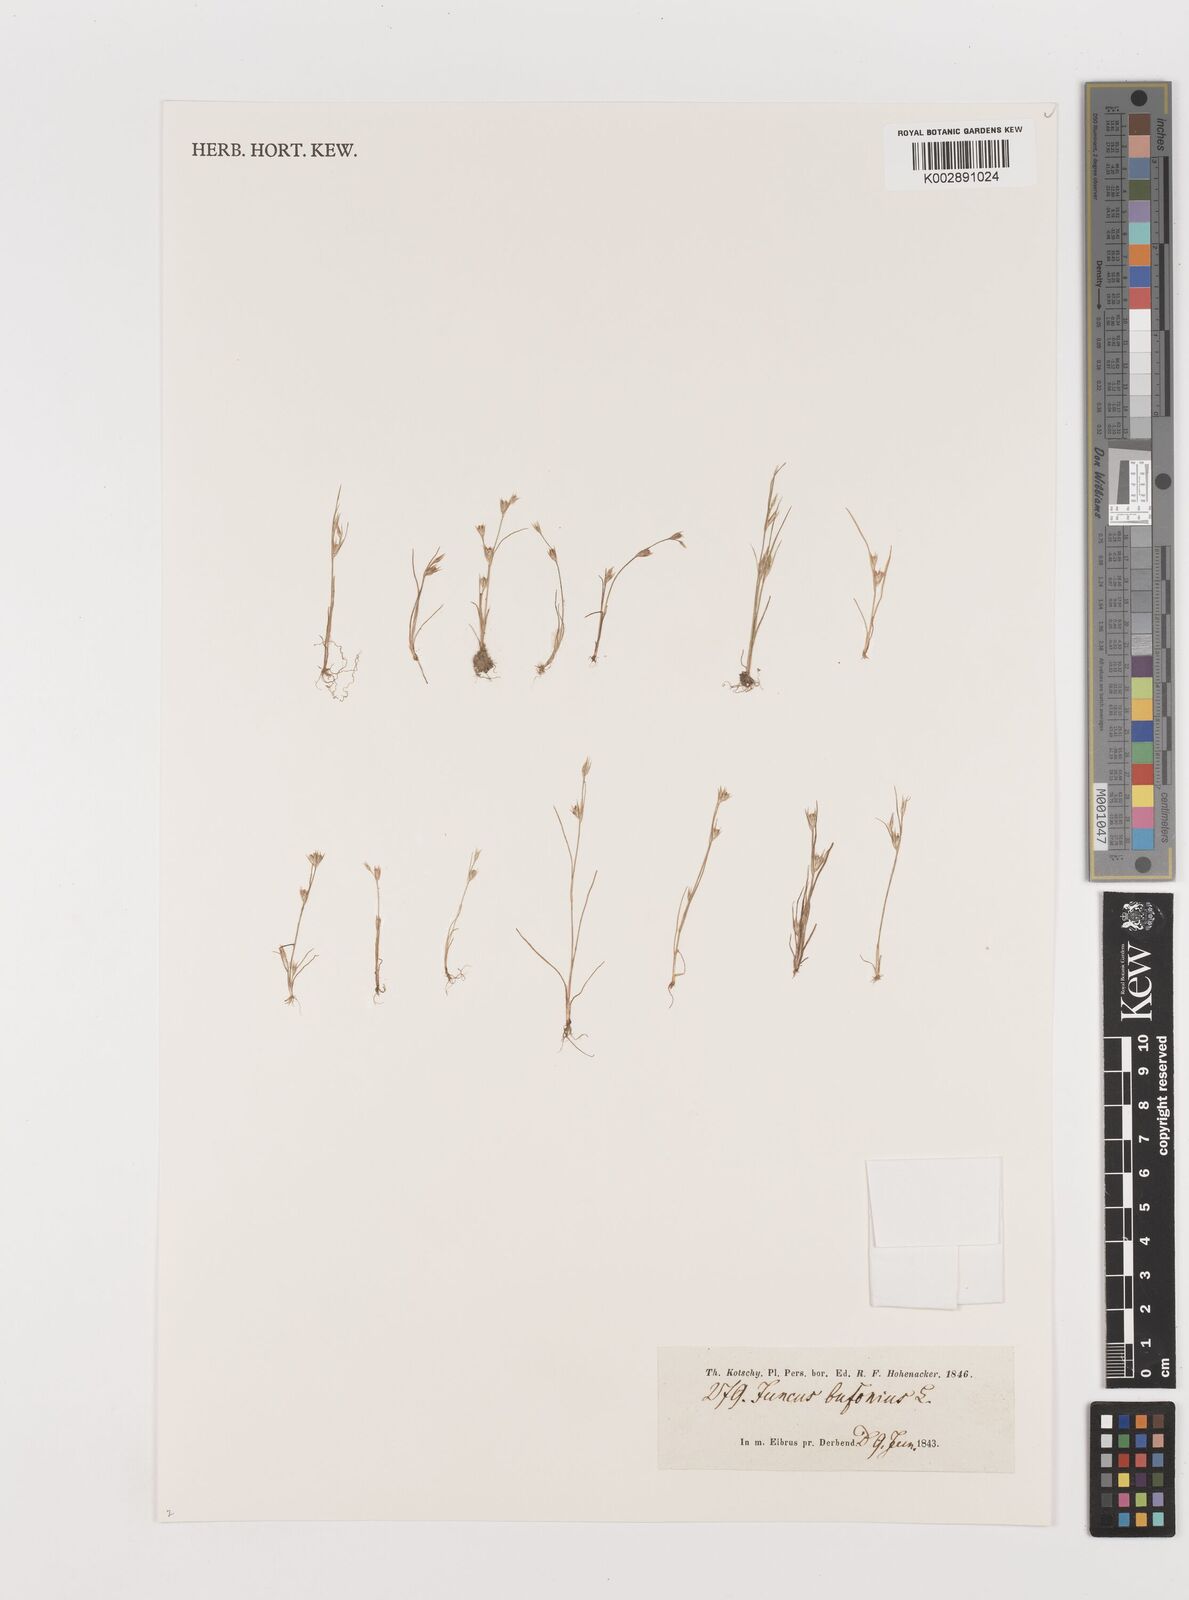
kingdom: Plantae
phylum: Tracheophyta
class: Liliopsida
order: Poales
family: Juncaceae
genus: Juncus
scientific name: Juncus bufonius
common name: Toad rush
